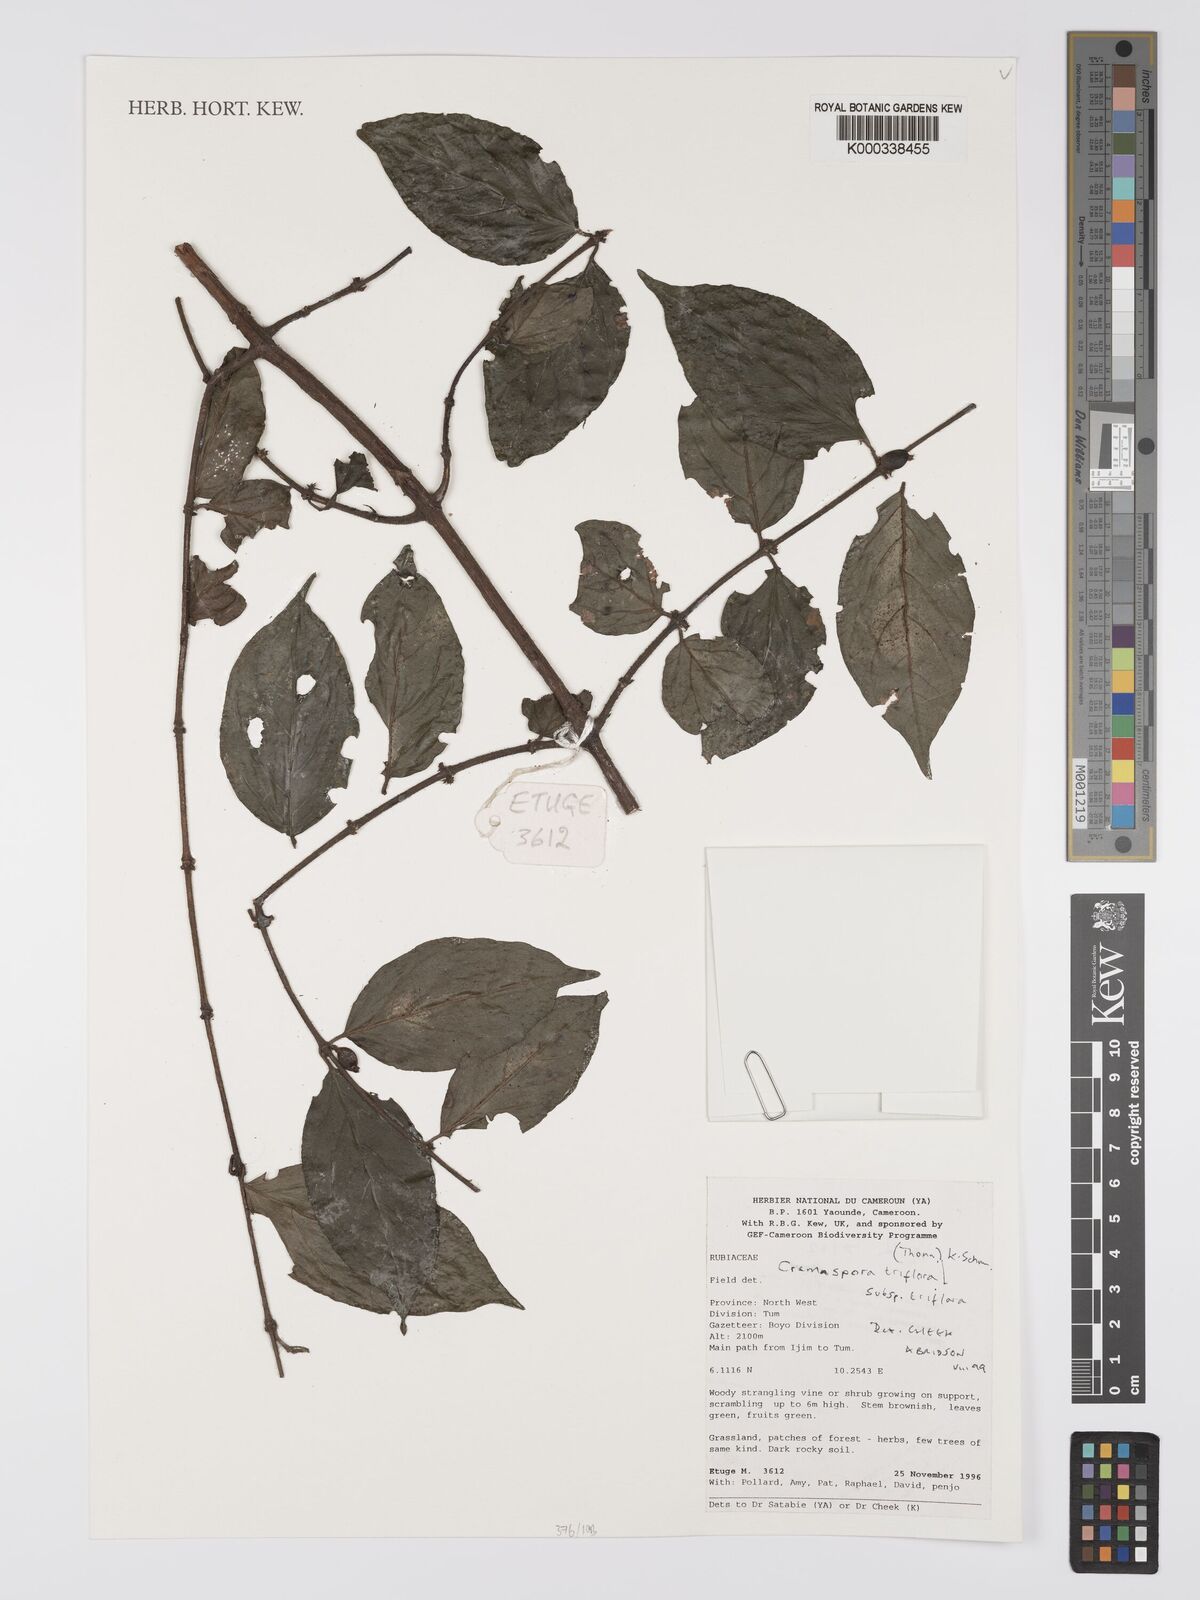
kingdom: Plantae
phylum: Tracheophyta
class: Magnoliopsida
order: Gentianales
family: Rubiaceae
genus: Cremaspora
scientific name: Cremaspora triflora
